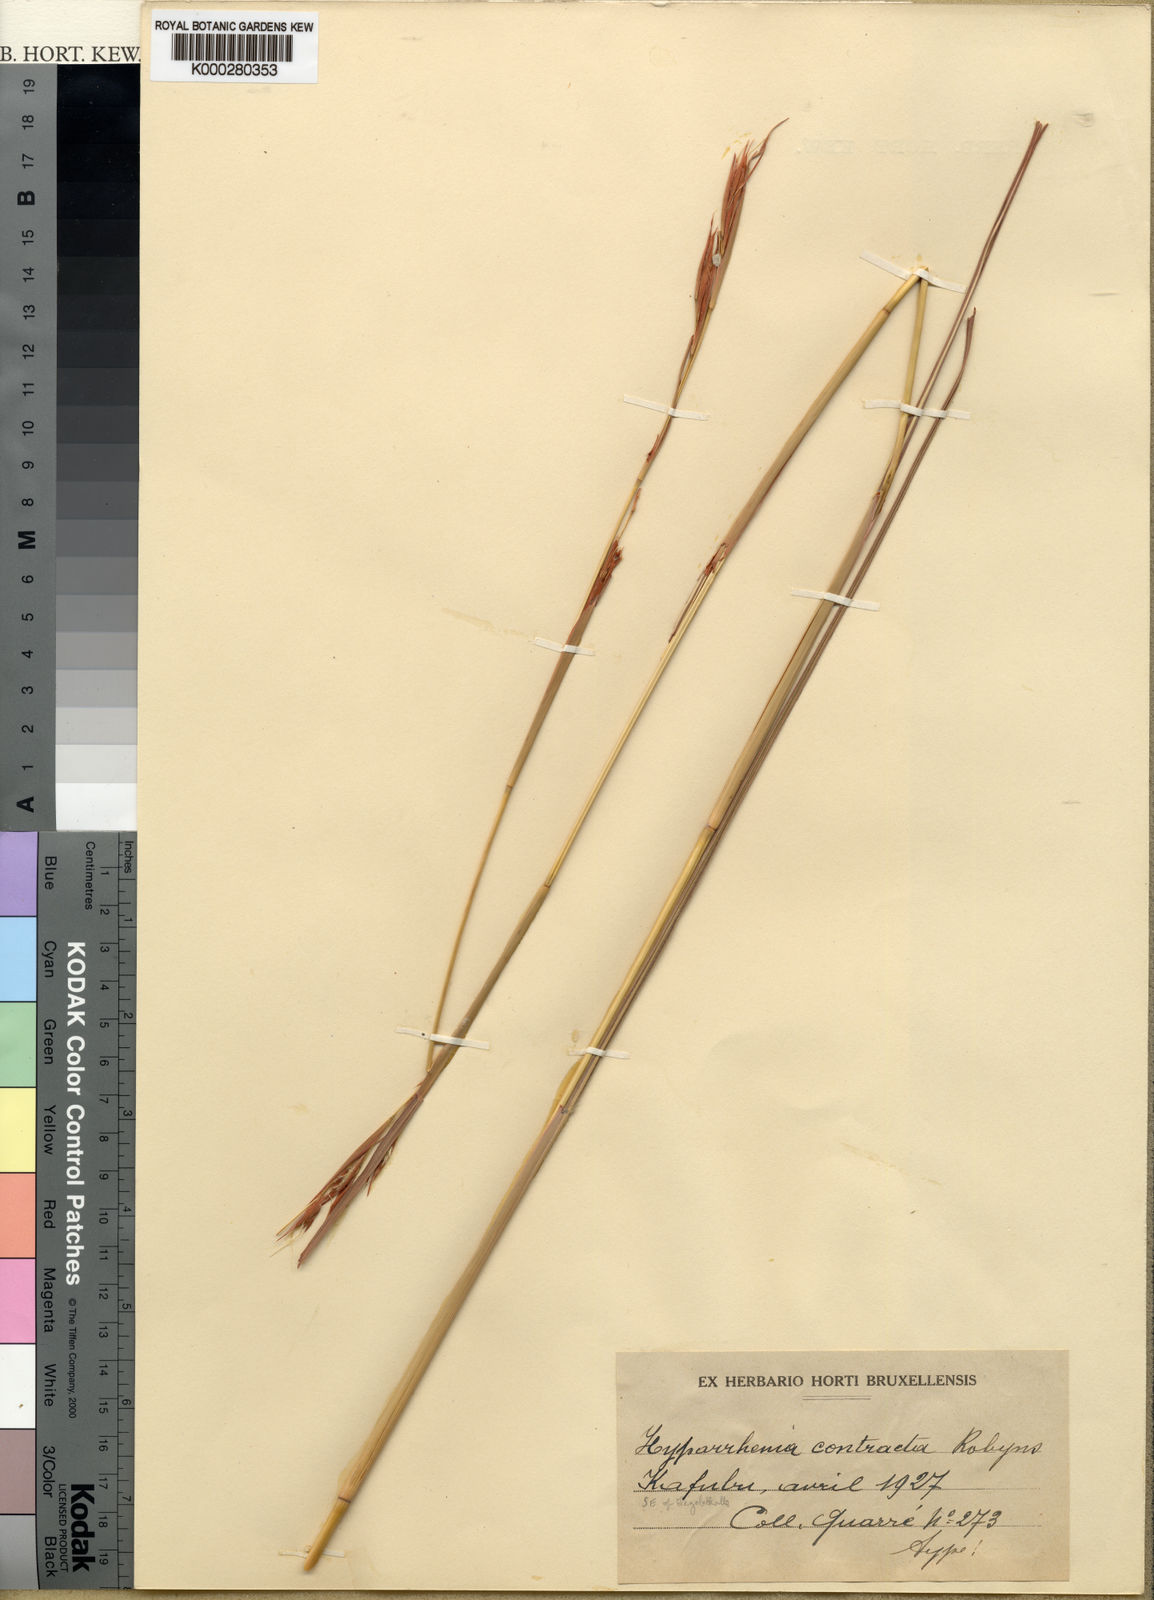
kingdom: Plantae
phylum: Tracheophyta
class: Liliopsida
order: Poales
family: Poaceae
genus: Hyparrhenia
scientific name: Hyparrhenia bracteata
